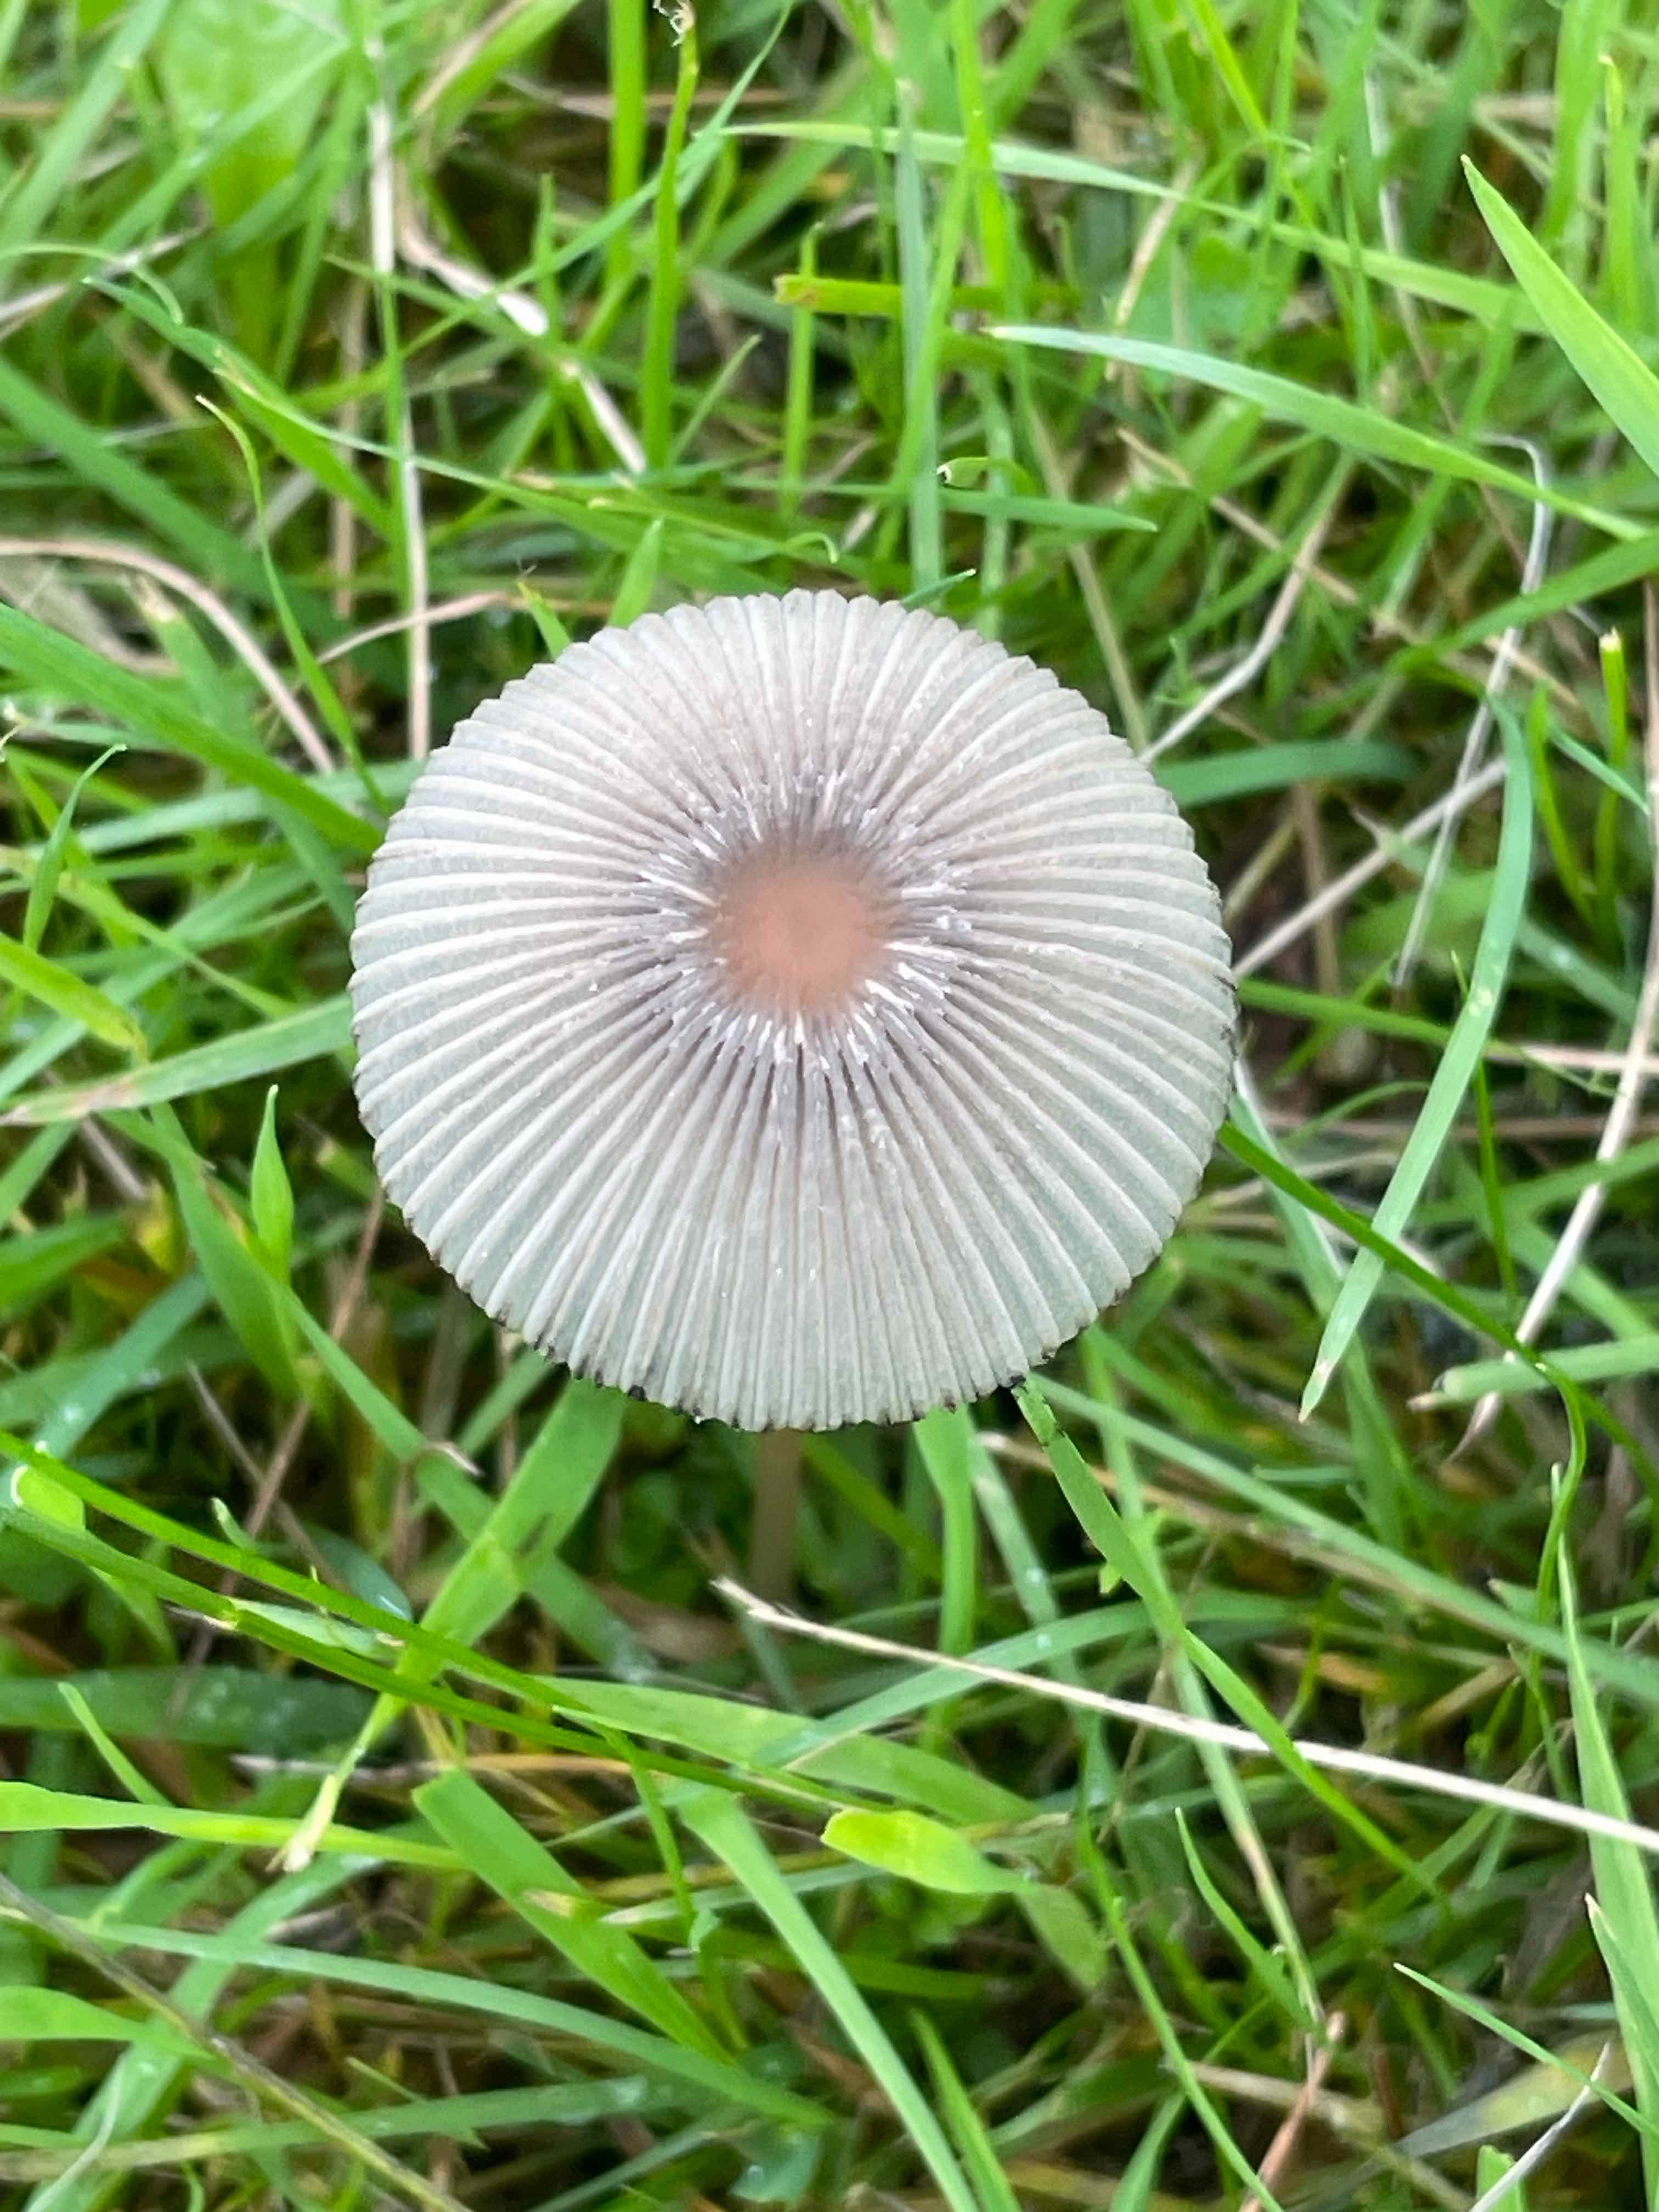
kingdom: Fungi
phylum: Basidiomycota
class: Agaricomycetes
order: Agaricales
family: Psathyrellaceae
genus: Parasola
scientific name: Parasola
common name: hjulhat
